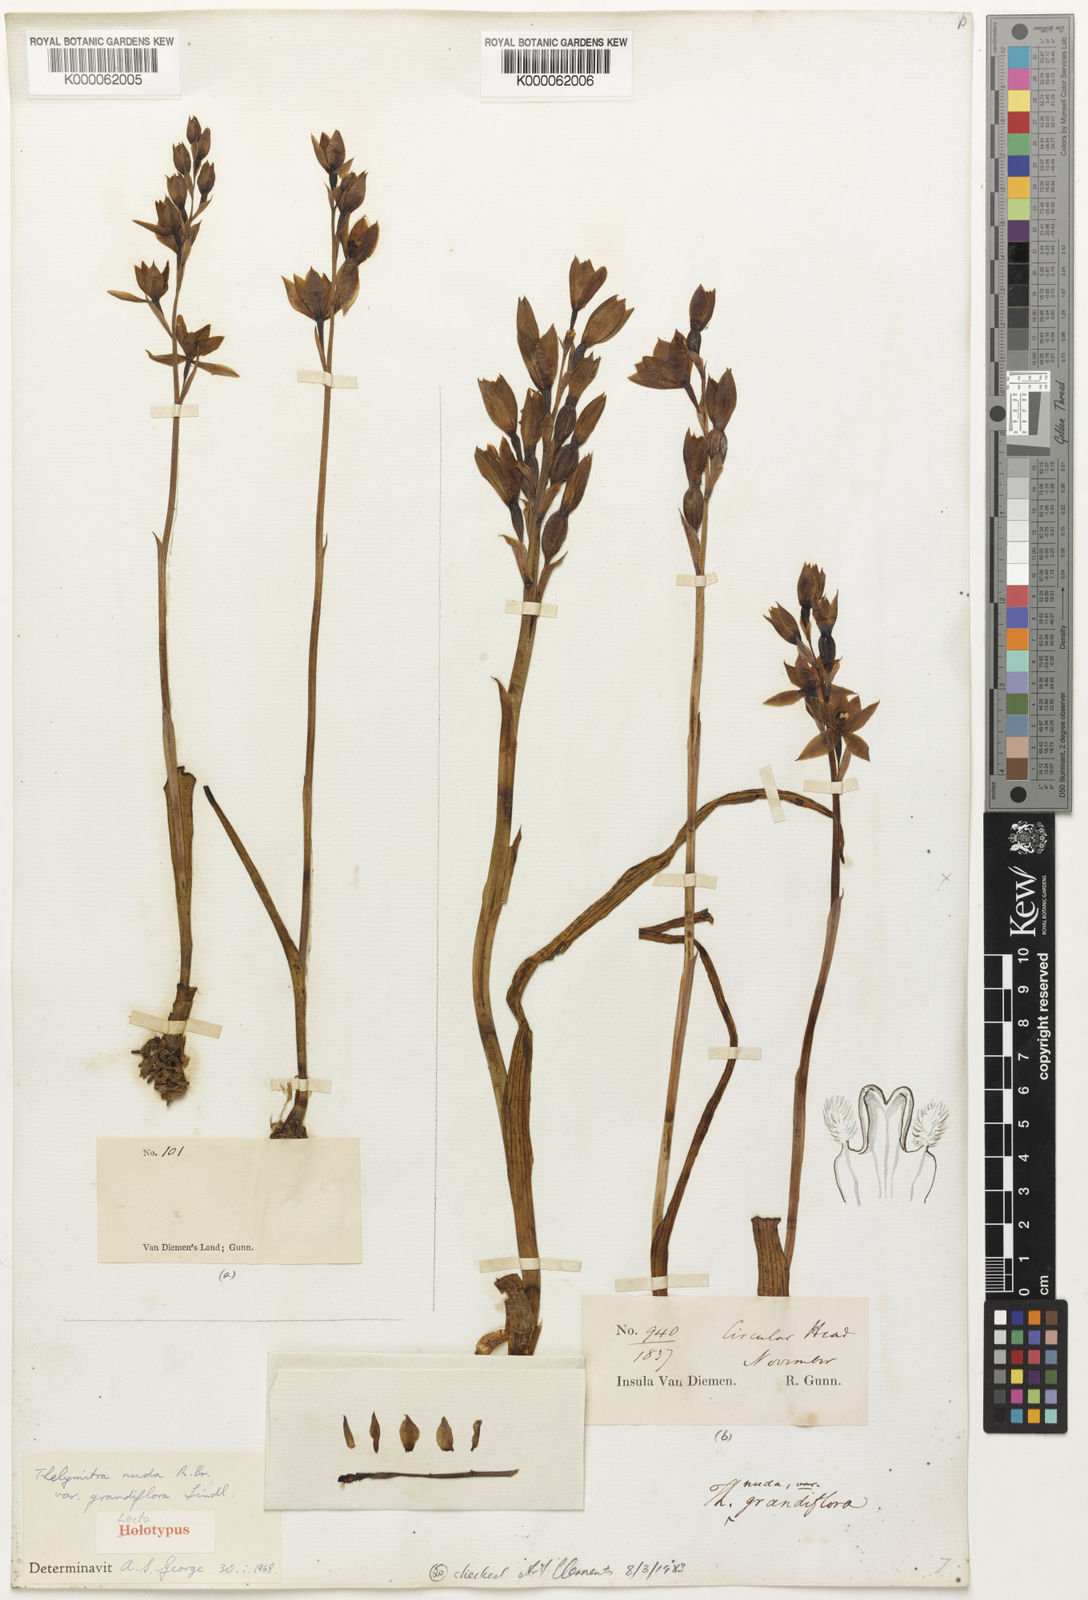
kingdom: Plantae
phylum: Tracheophyta
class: Liliopsida
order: Asparagales
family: Orchidaceae
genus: Thelymitra
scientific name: Thelymitra imbricata
